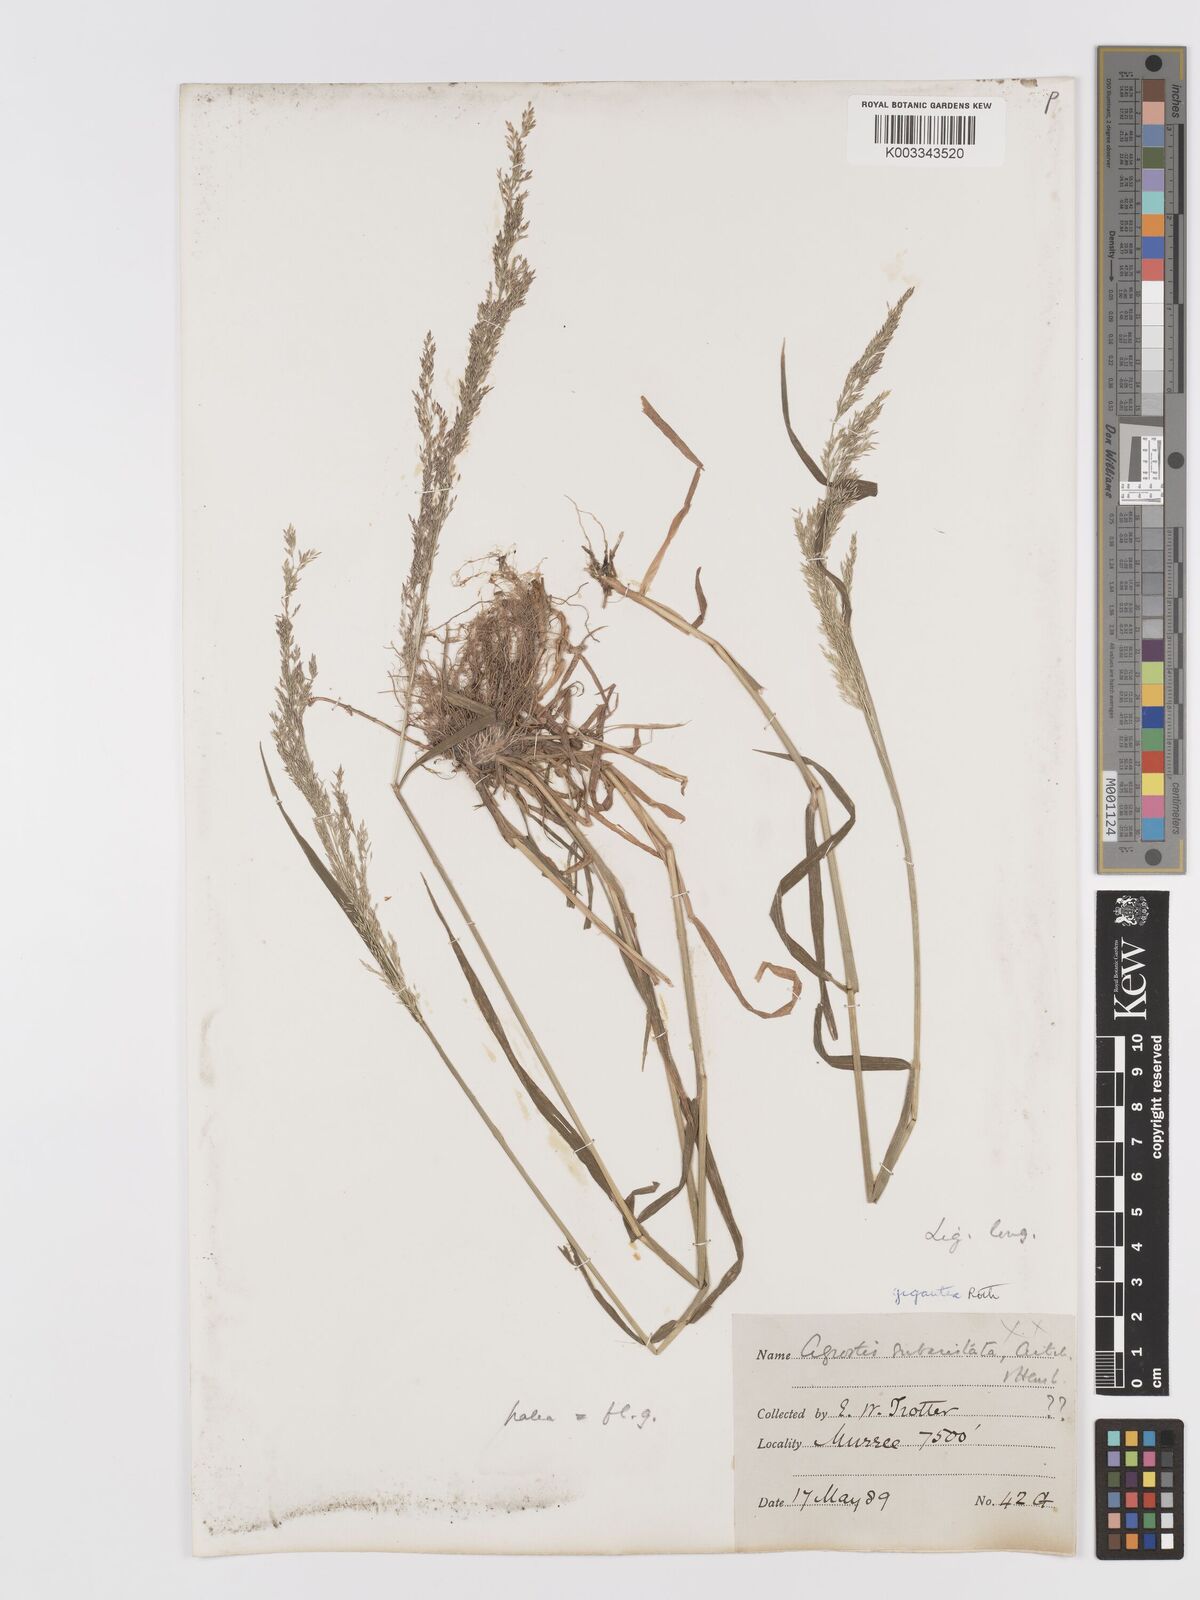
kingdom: Plantae
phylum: Tracheophyta
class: Liliopsida
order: Poales
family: Poaceae
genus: Agrostis
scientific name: Agrostis gigantea
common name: Black bent
